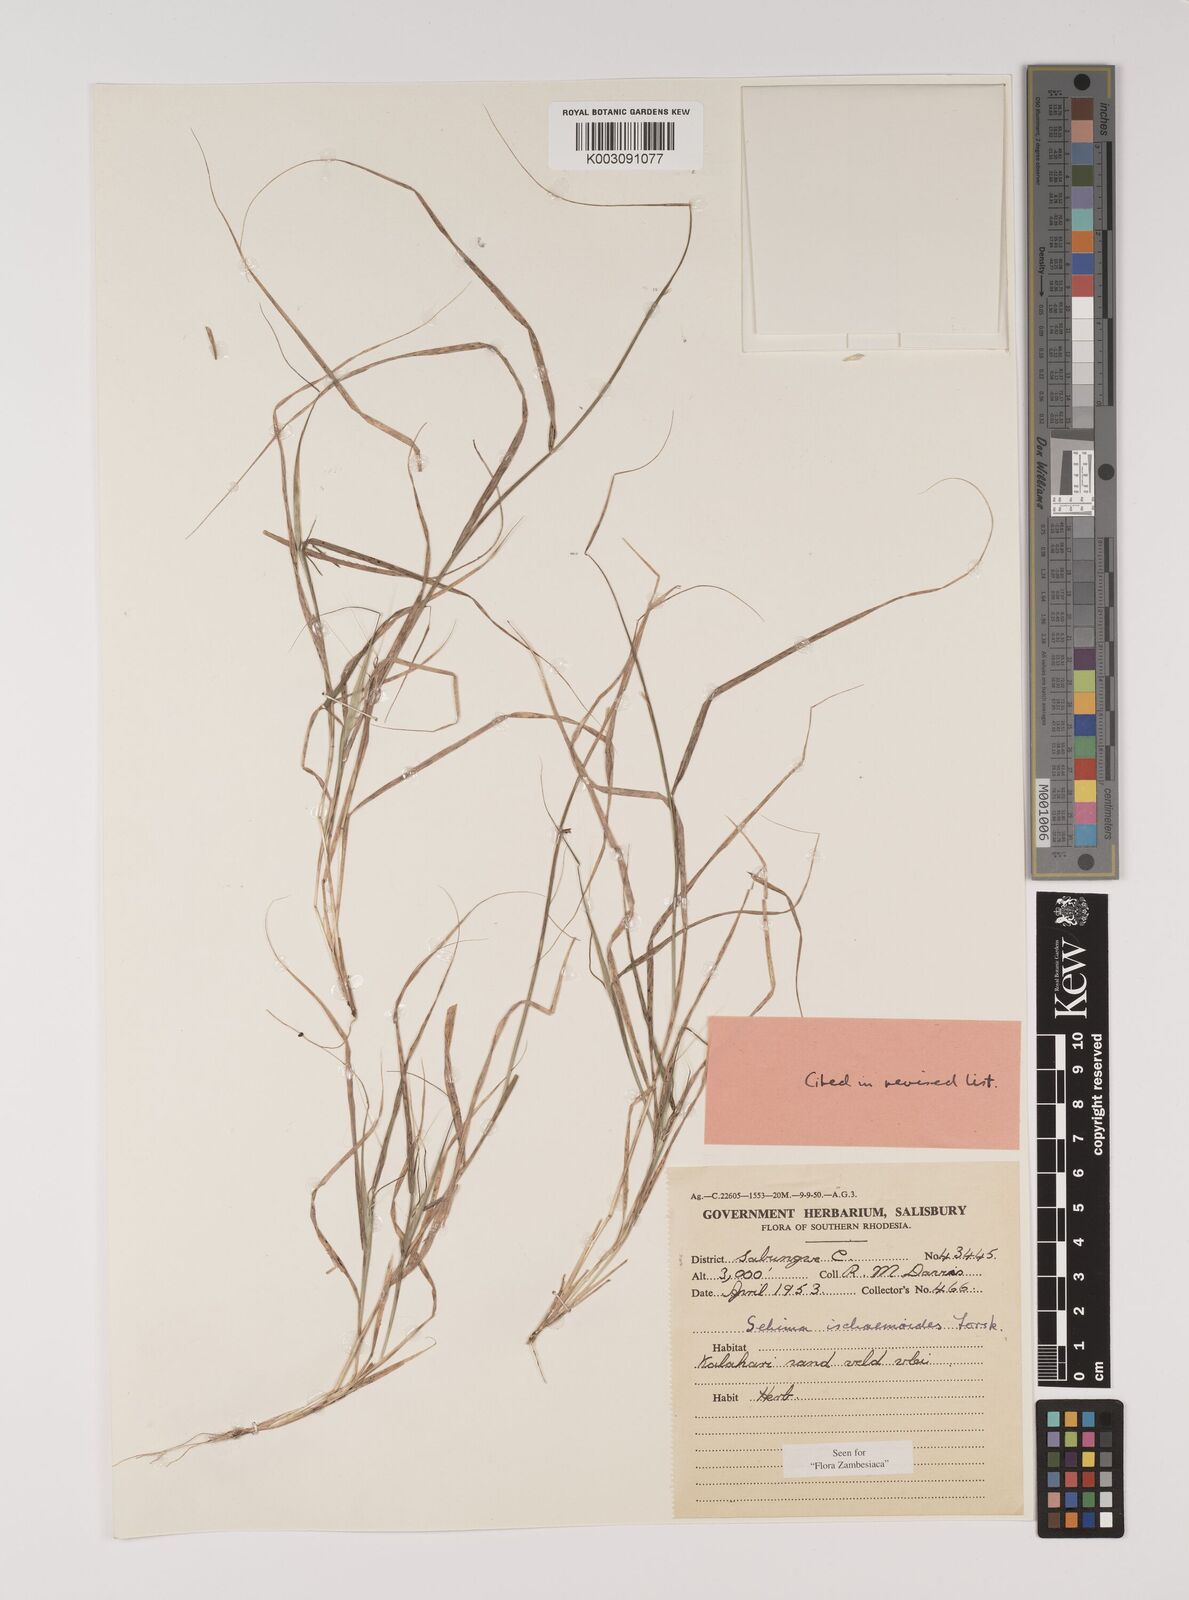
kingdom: Plantae
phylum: Tracheophyta
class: Liliopsida
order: Poales
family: Poaceae
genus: Sehima
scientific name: Sehima ischaemoides
